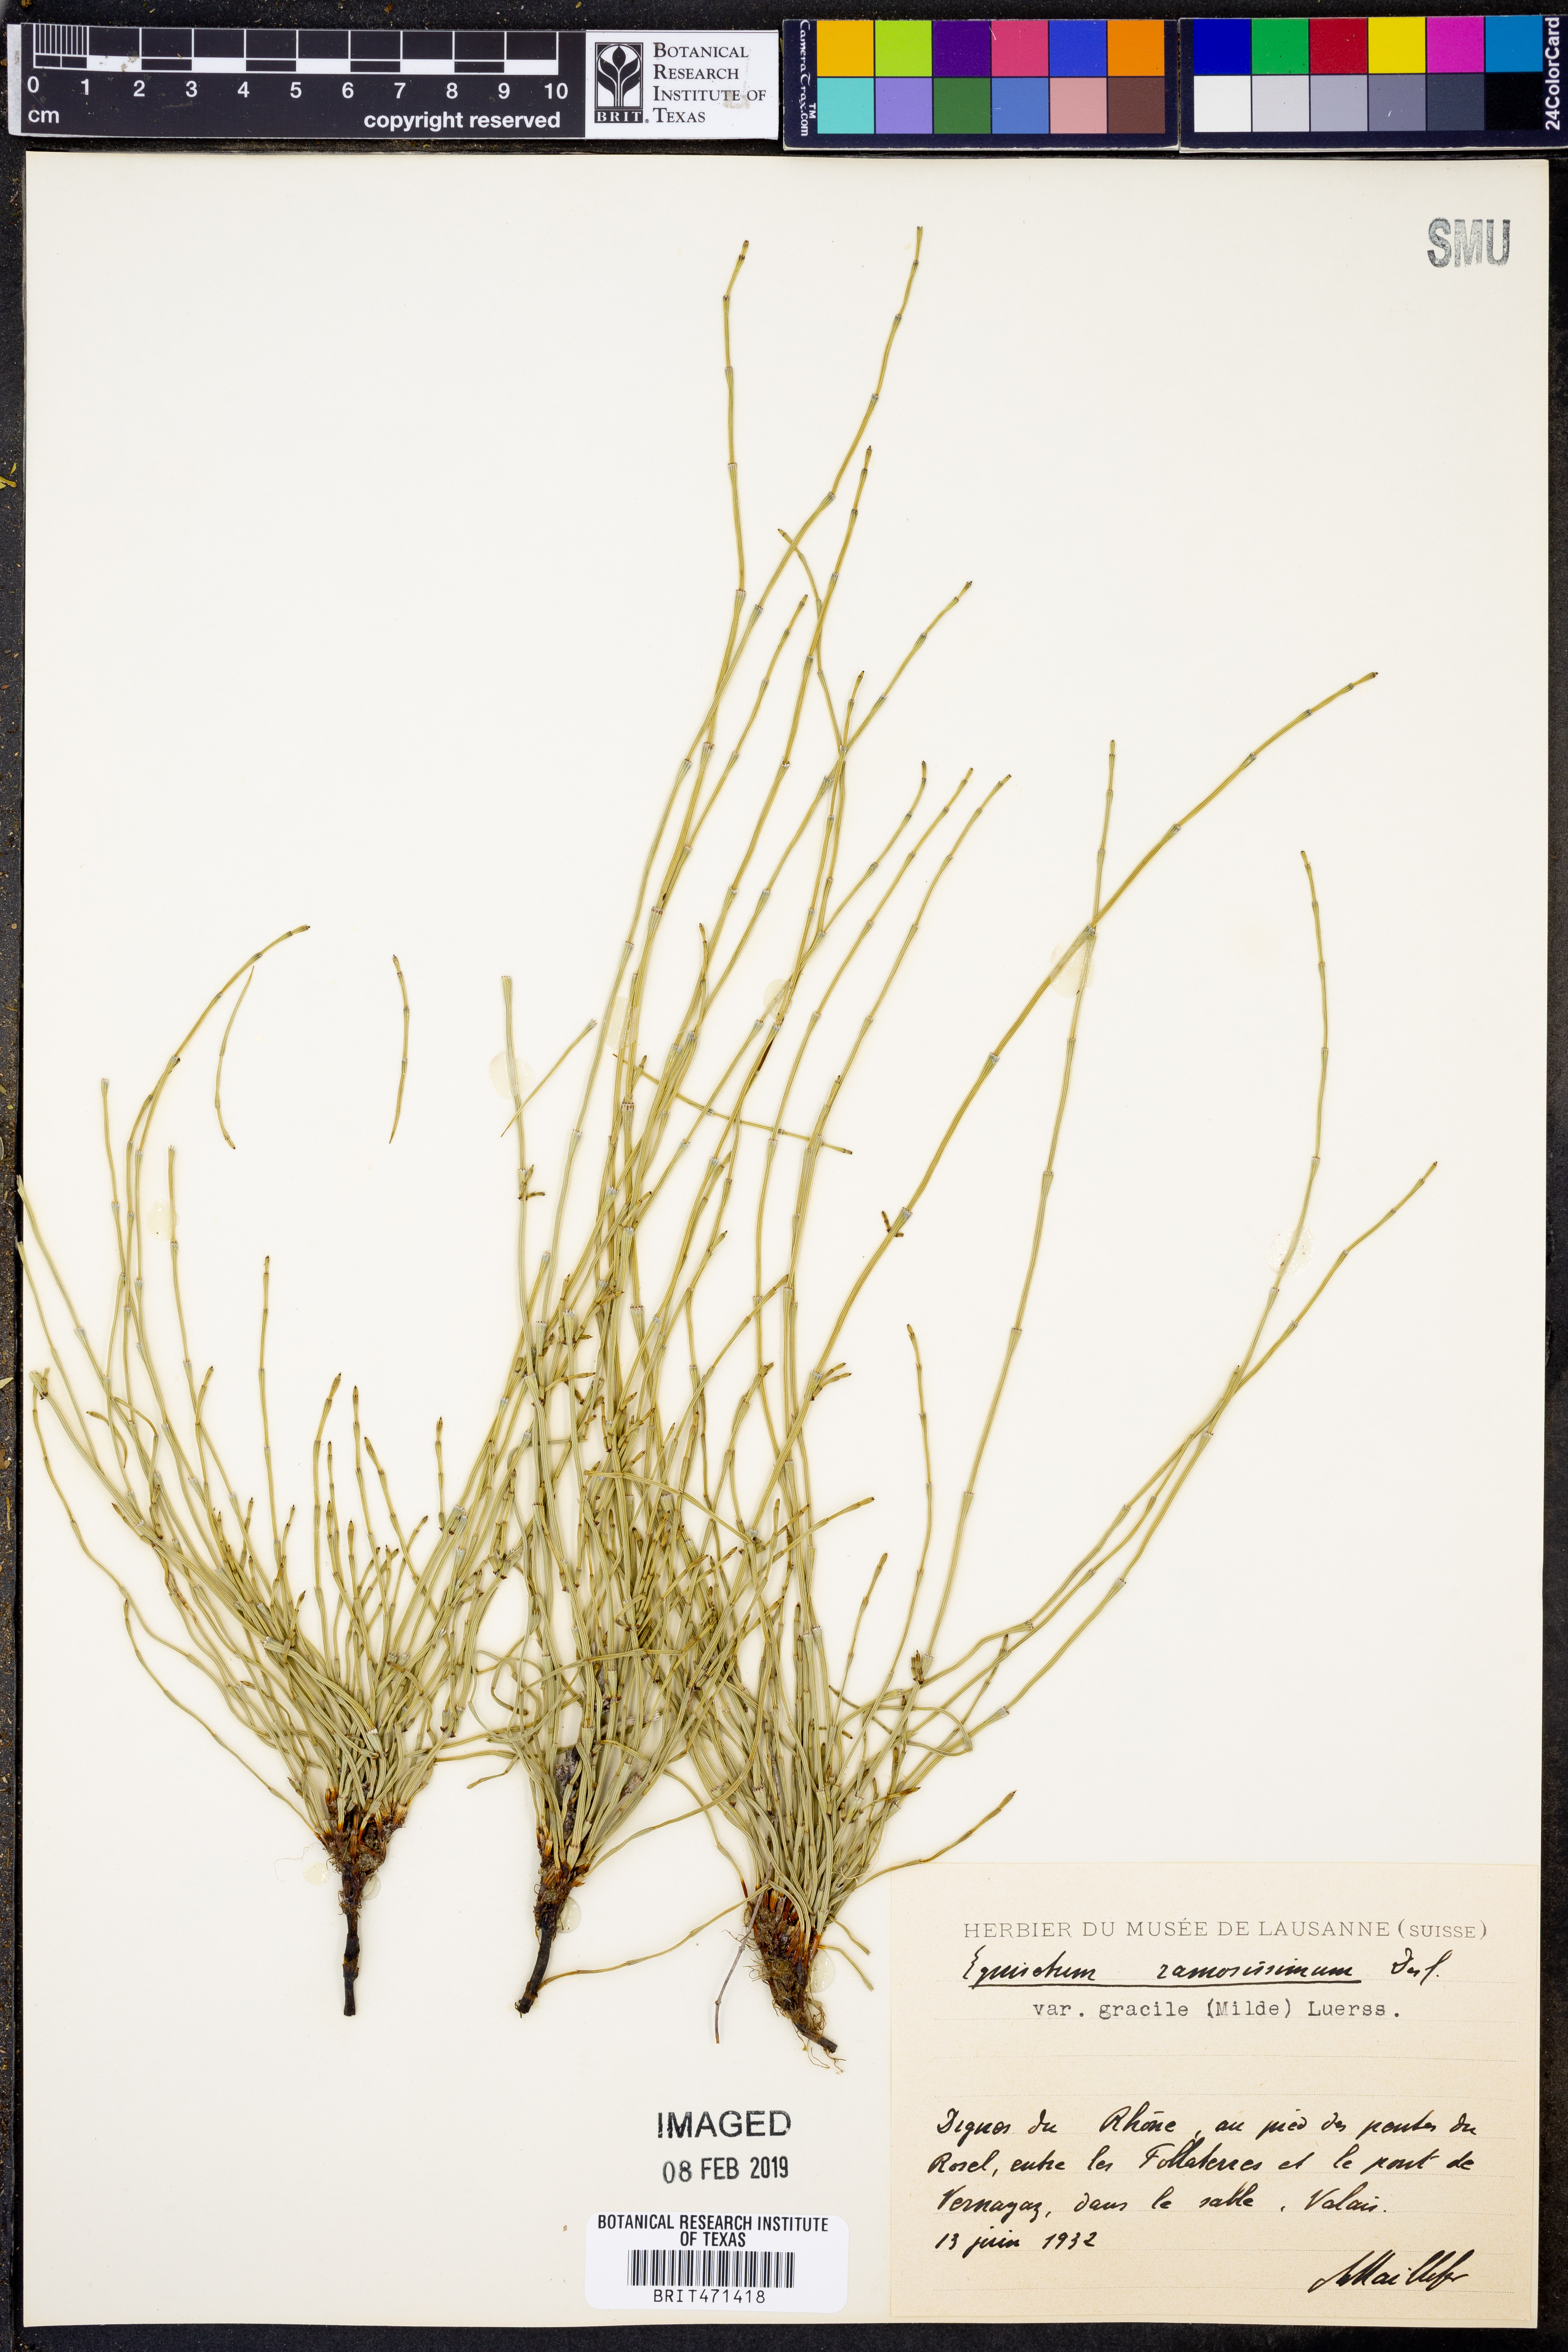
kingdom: Plantae
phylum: Tracheophyta
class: Polypodiopsida
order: Equisetales
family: Equisetaceae
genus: Equisetum
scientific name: Equisetum ramosissimum
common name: Branched horsetail
